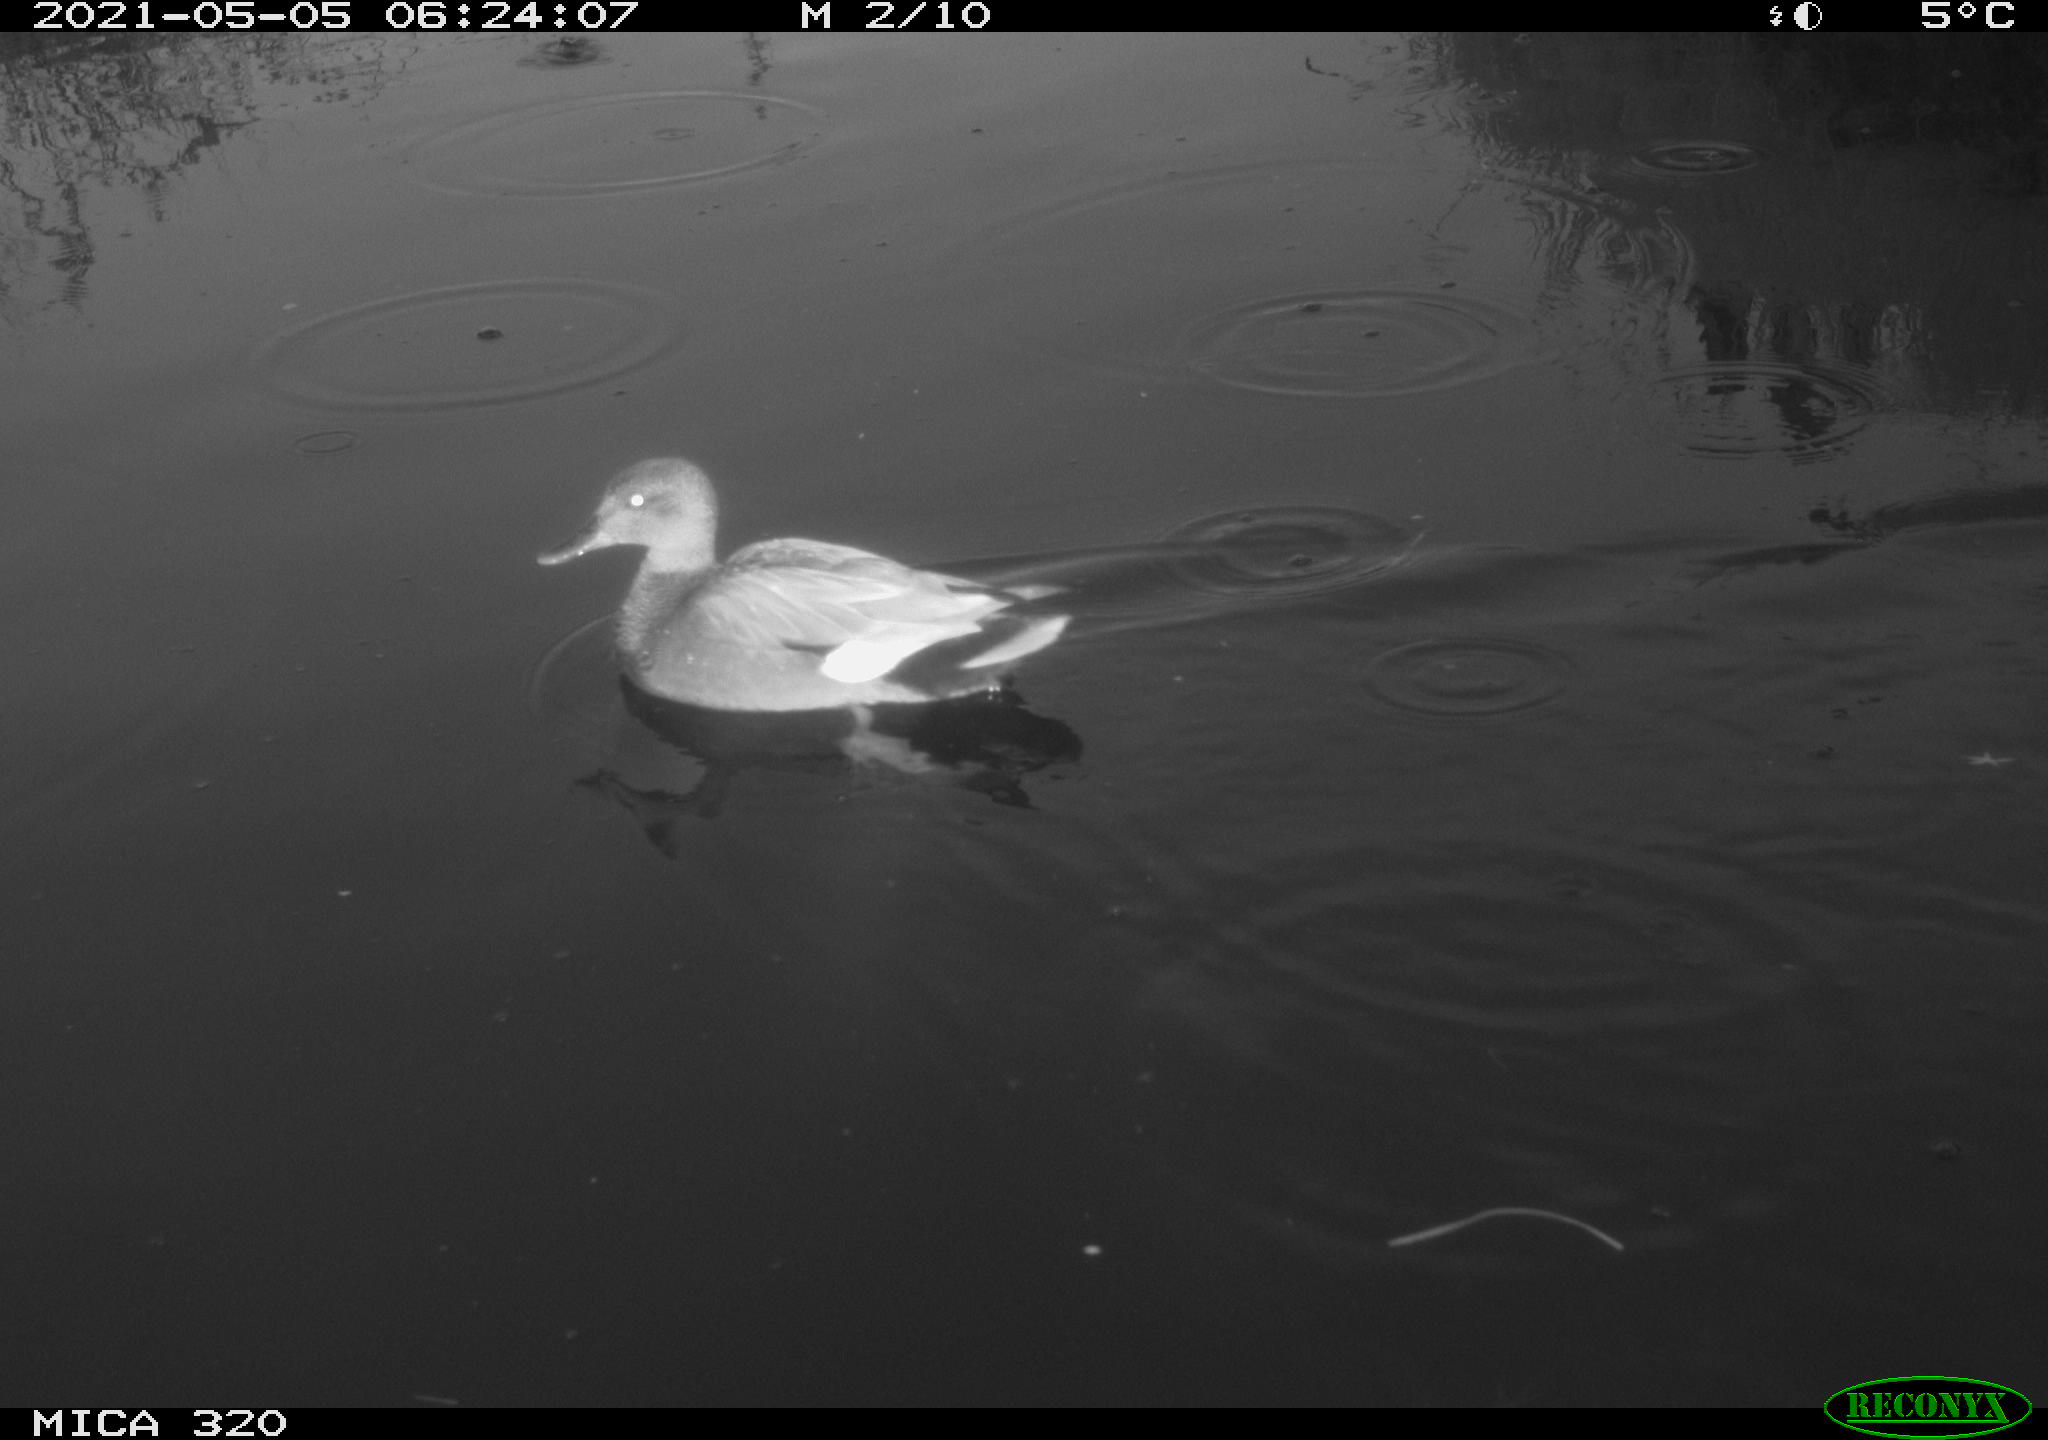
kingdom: Animalia
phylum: Chordata
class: Aves
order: Anseriformes
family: Anatidae
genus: Anas
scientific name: Anas platyrhynchos
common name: Mallard
